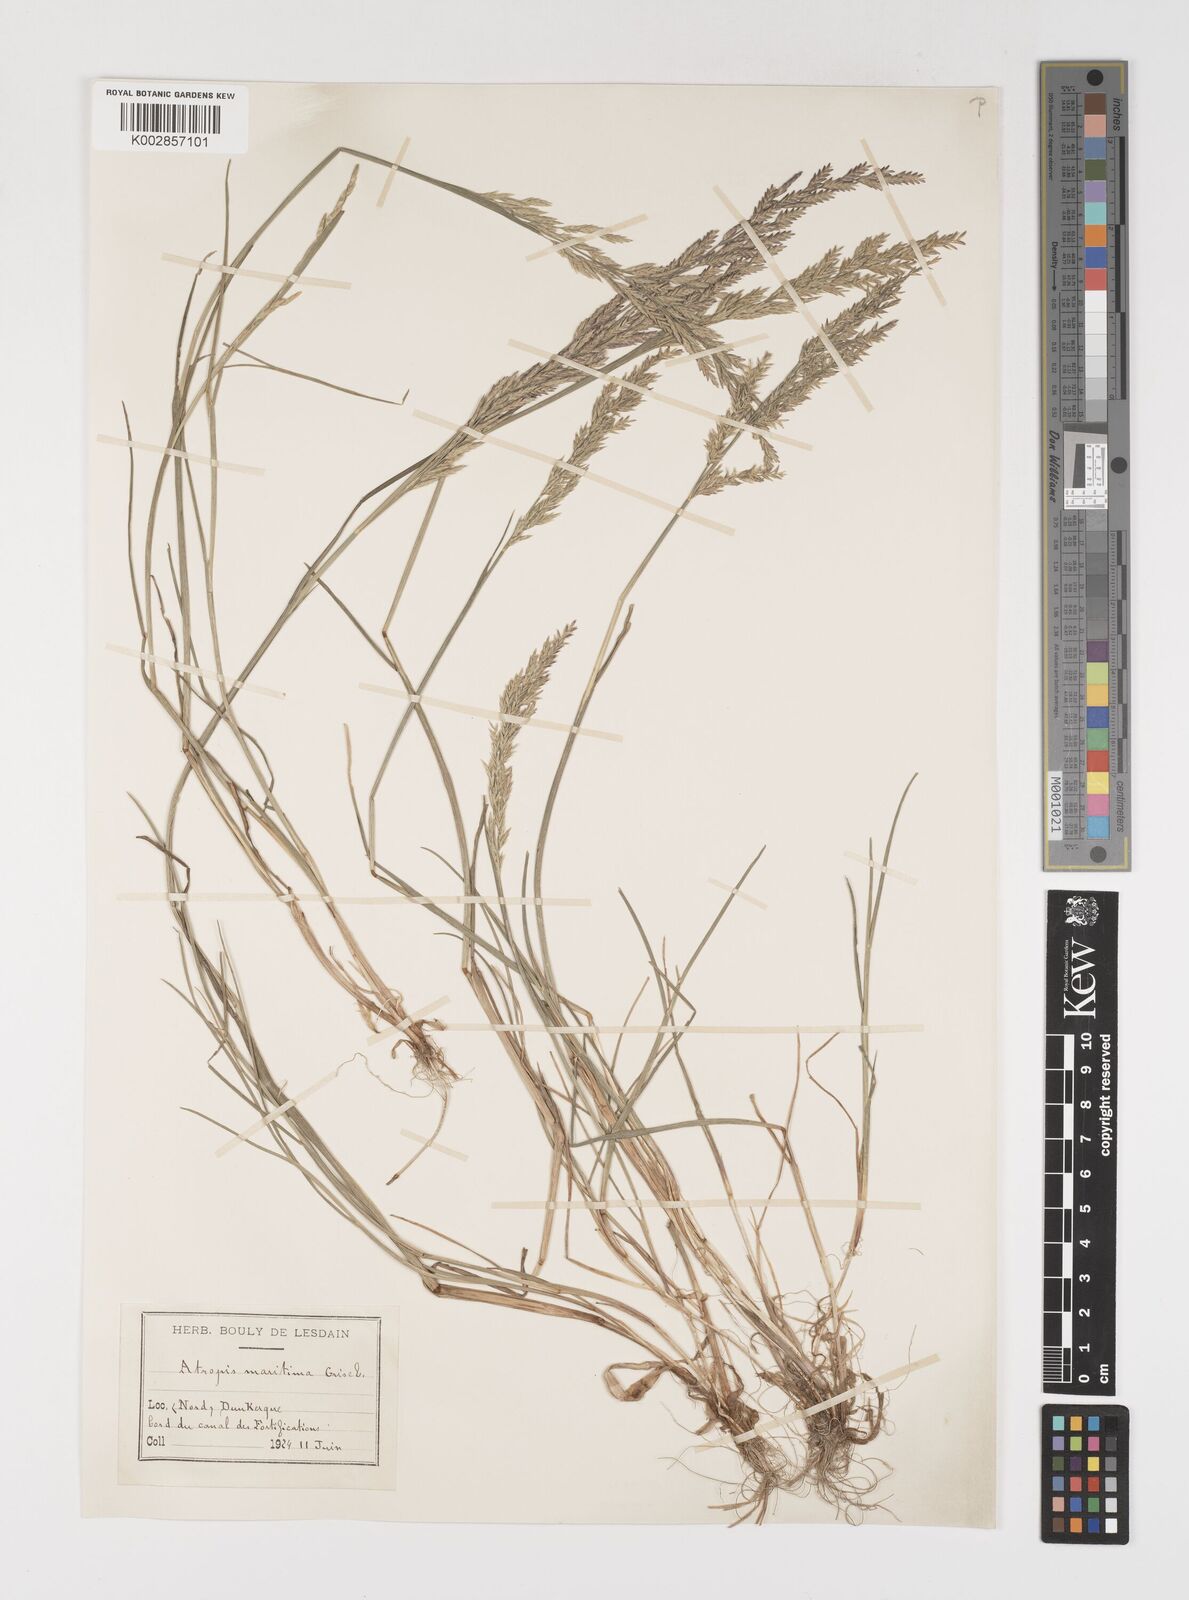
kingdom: Plantae
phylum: Tracheophyta
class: Liliopsida
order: Poales
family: Poaceae
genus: Puccinellia
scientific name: Puccinellia maritima
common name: Common saltmarsh grass
